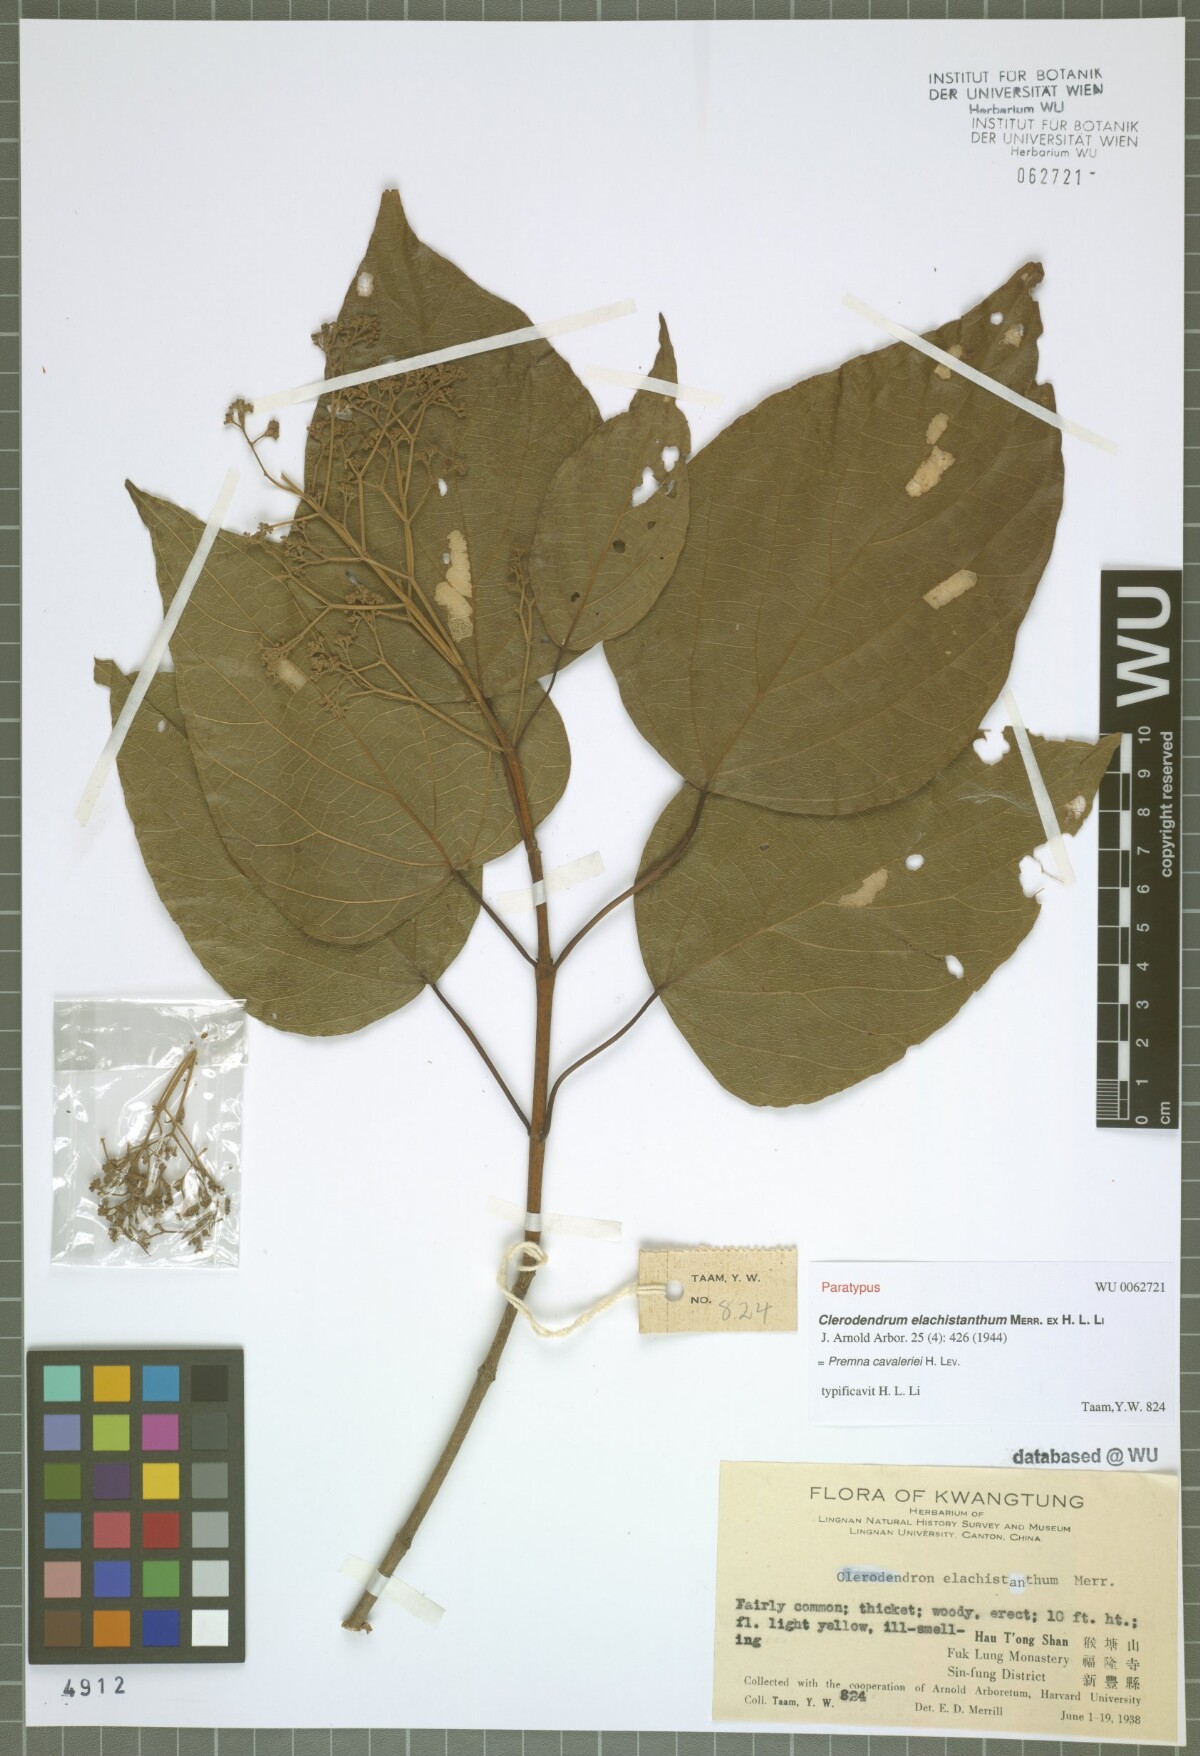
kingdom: Plantae
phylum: Tracheophyta
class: Magnoliopsida
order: Lamiales
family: Lamiaceae
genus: Premna
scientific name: Premna cavaleriei
